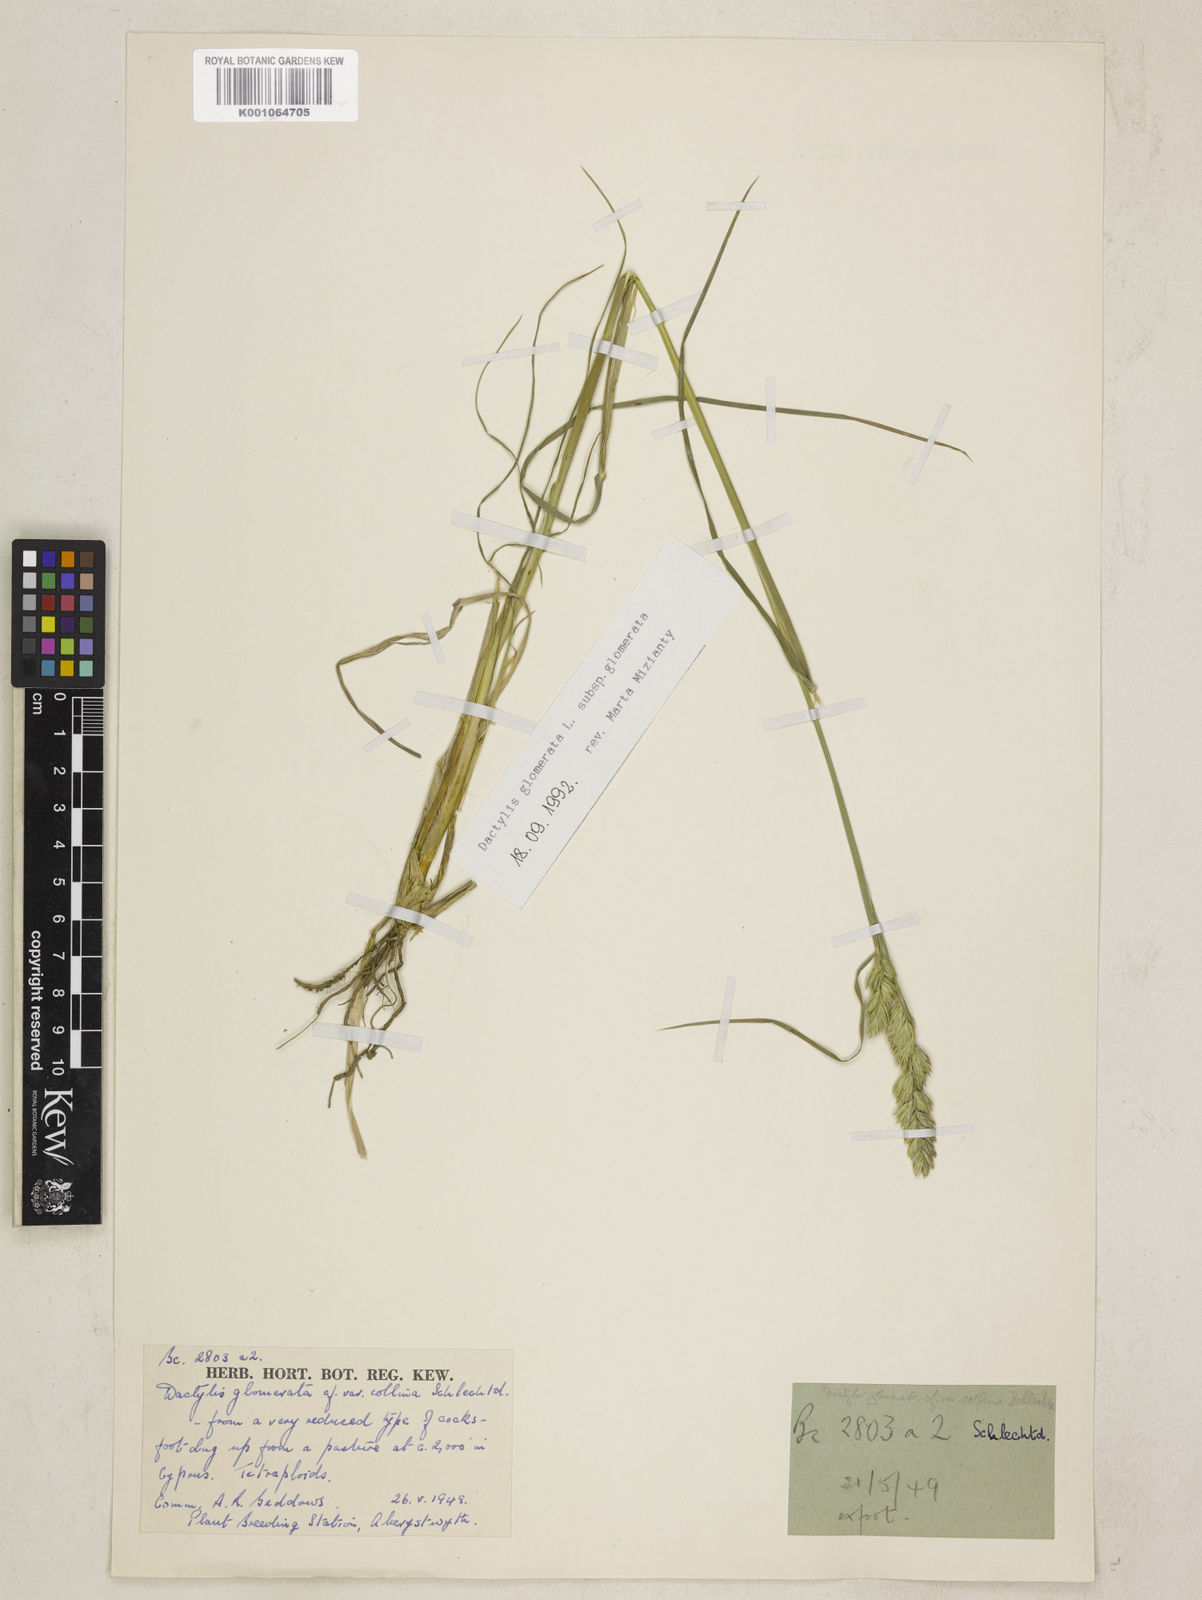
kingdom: Plantae
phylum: Tracheophyta
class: Liliopsida
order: Poales
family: Poaceae
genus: Dactylis
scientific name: Dactylis glomerata
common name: Orchardgrass
